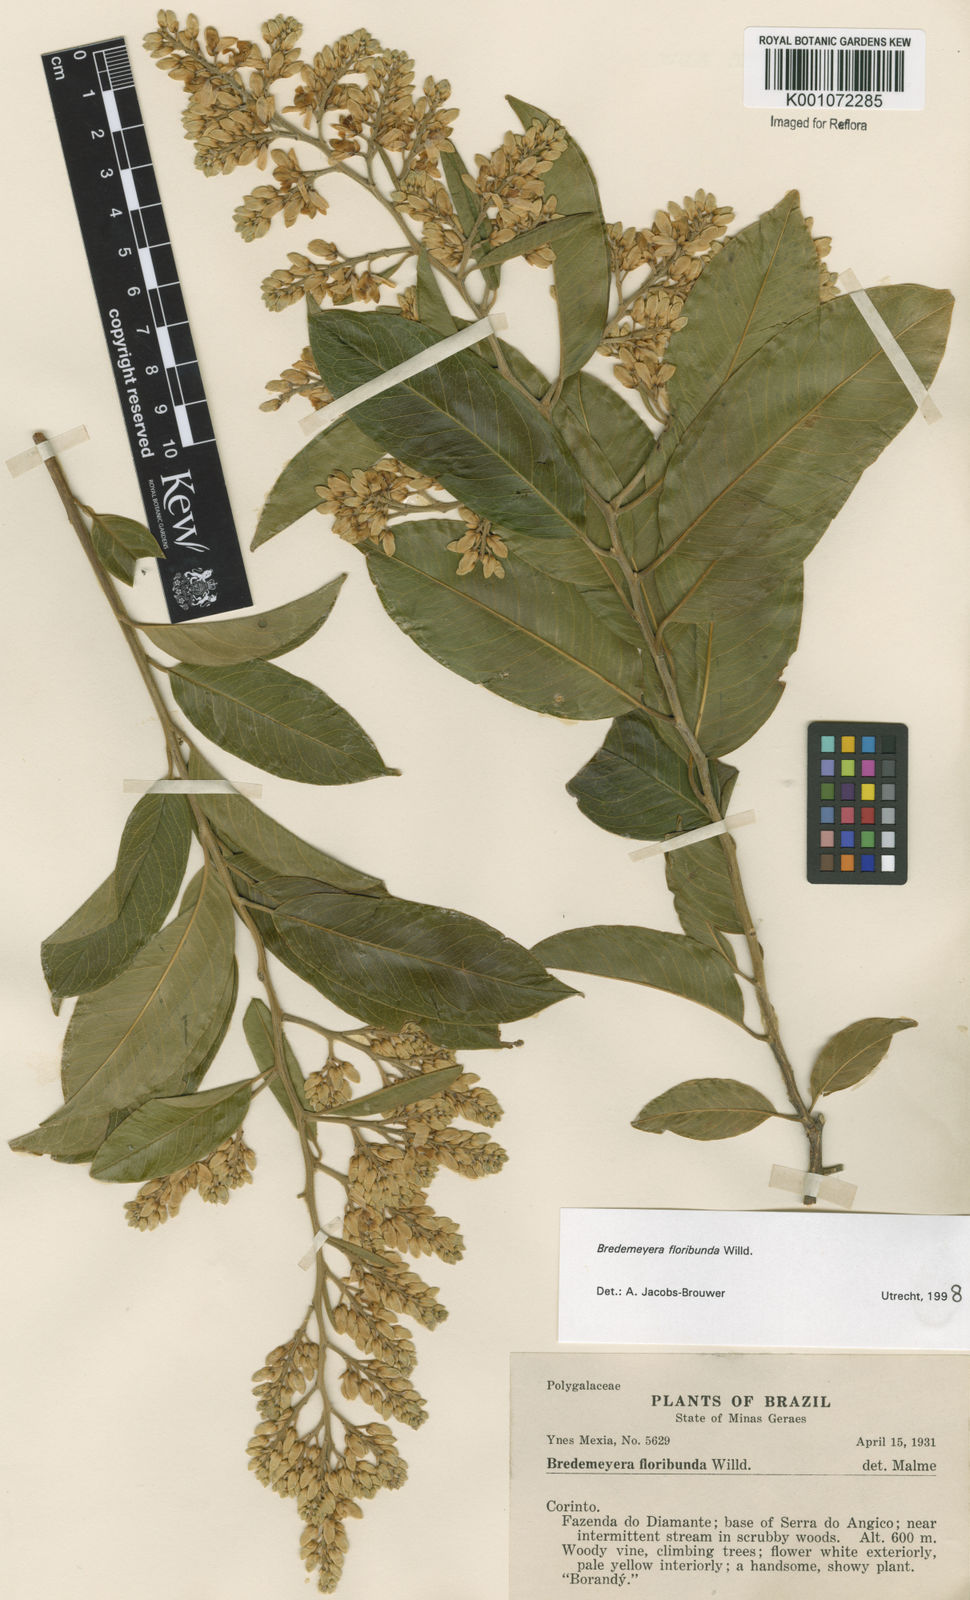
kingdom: Plantae
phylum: Tracheophyta
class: Magnoliopsida
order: Fabales
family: Polygalaceae
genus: Bredemeyera
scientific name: Bredemeyera floribunda
